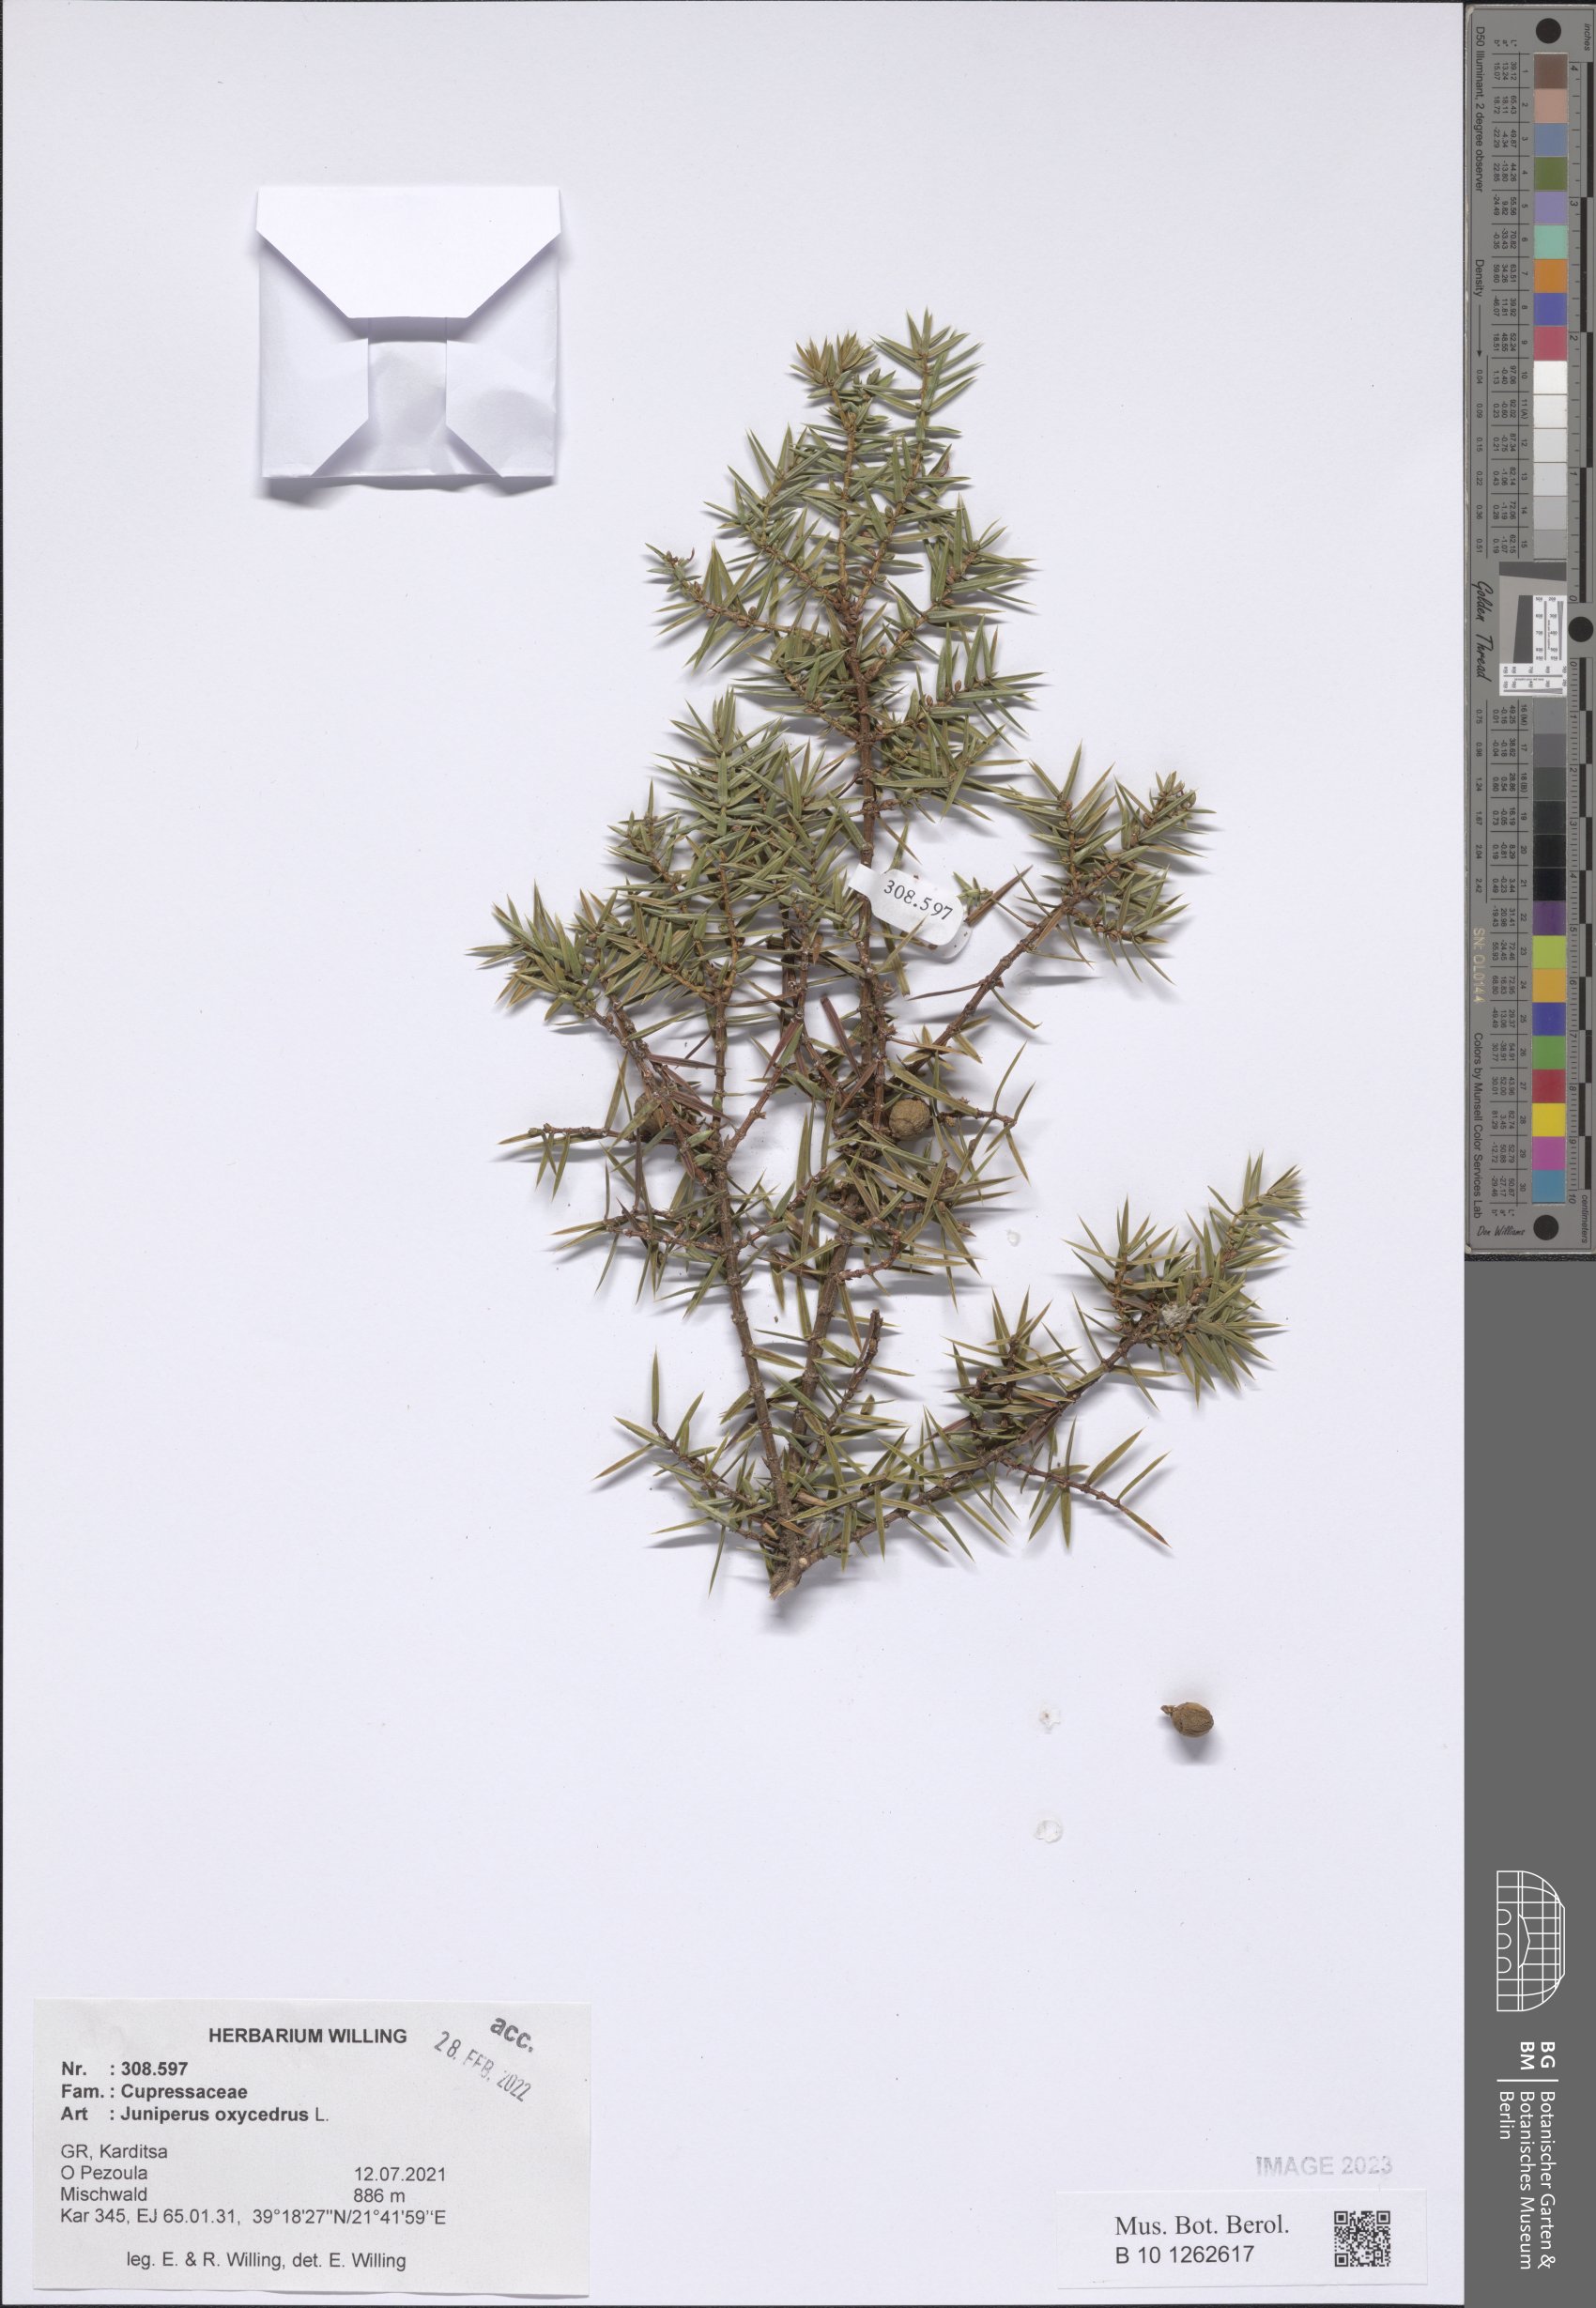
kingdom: Plantae
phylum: Tracheophyta
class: Pinopsida
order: Pinales
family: Cupressaceae
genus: Juniperus
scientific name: Juniperus oxycedrus
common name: Prickly juniper
